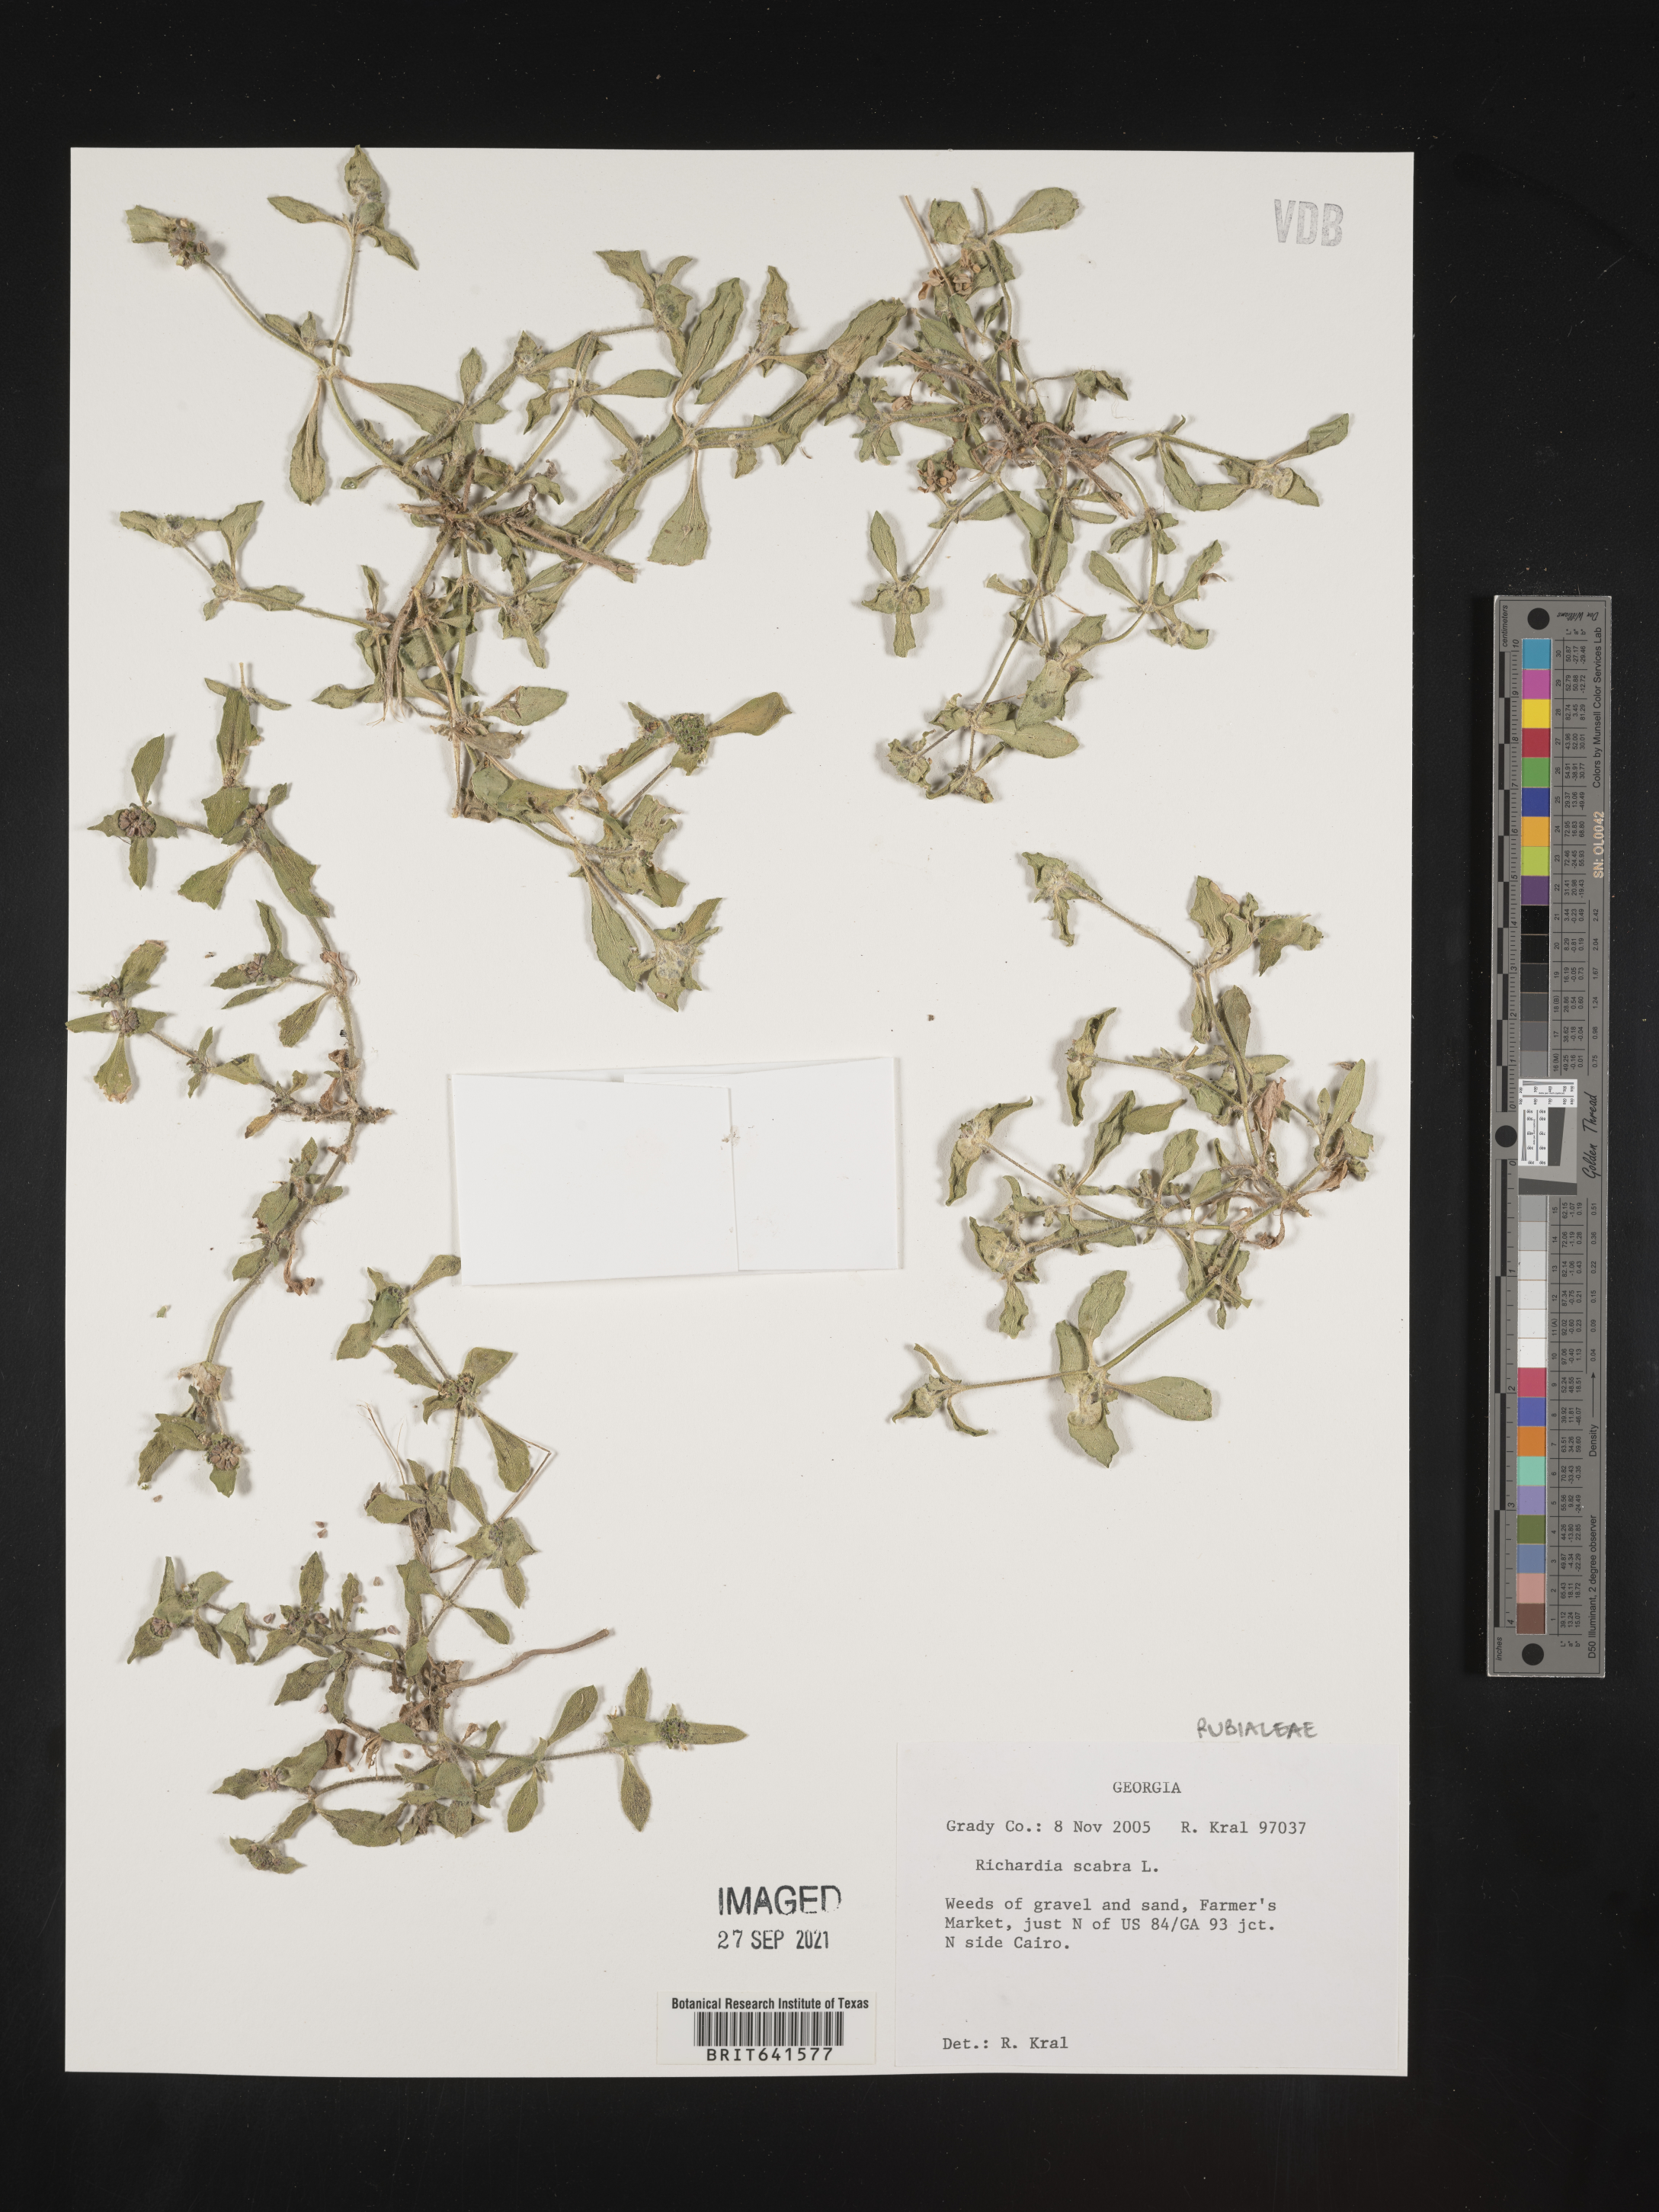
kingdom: Plantae
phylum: Tracheophyta
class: Magnoliopsida
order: Gentianales
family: Rubiaceae
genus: Richardia
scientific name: Richardia scabra
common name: Rough mexican clover
